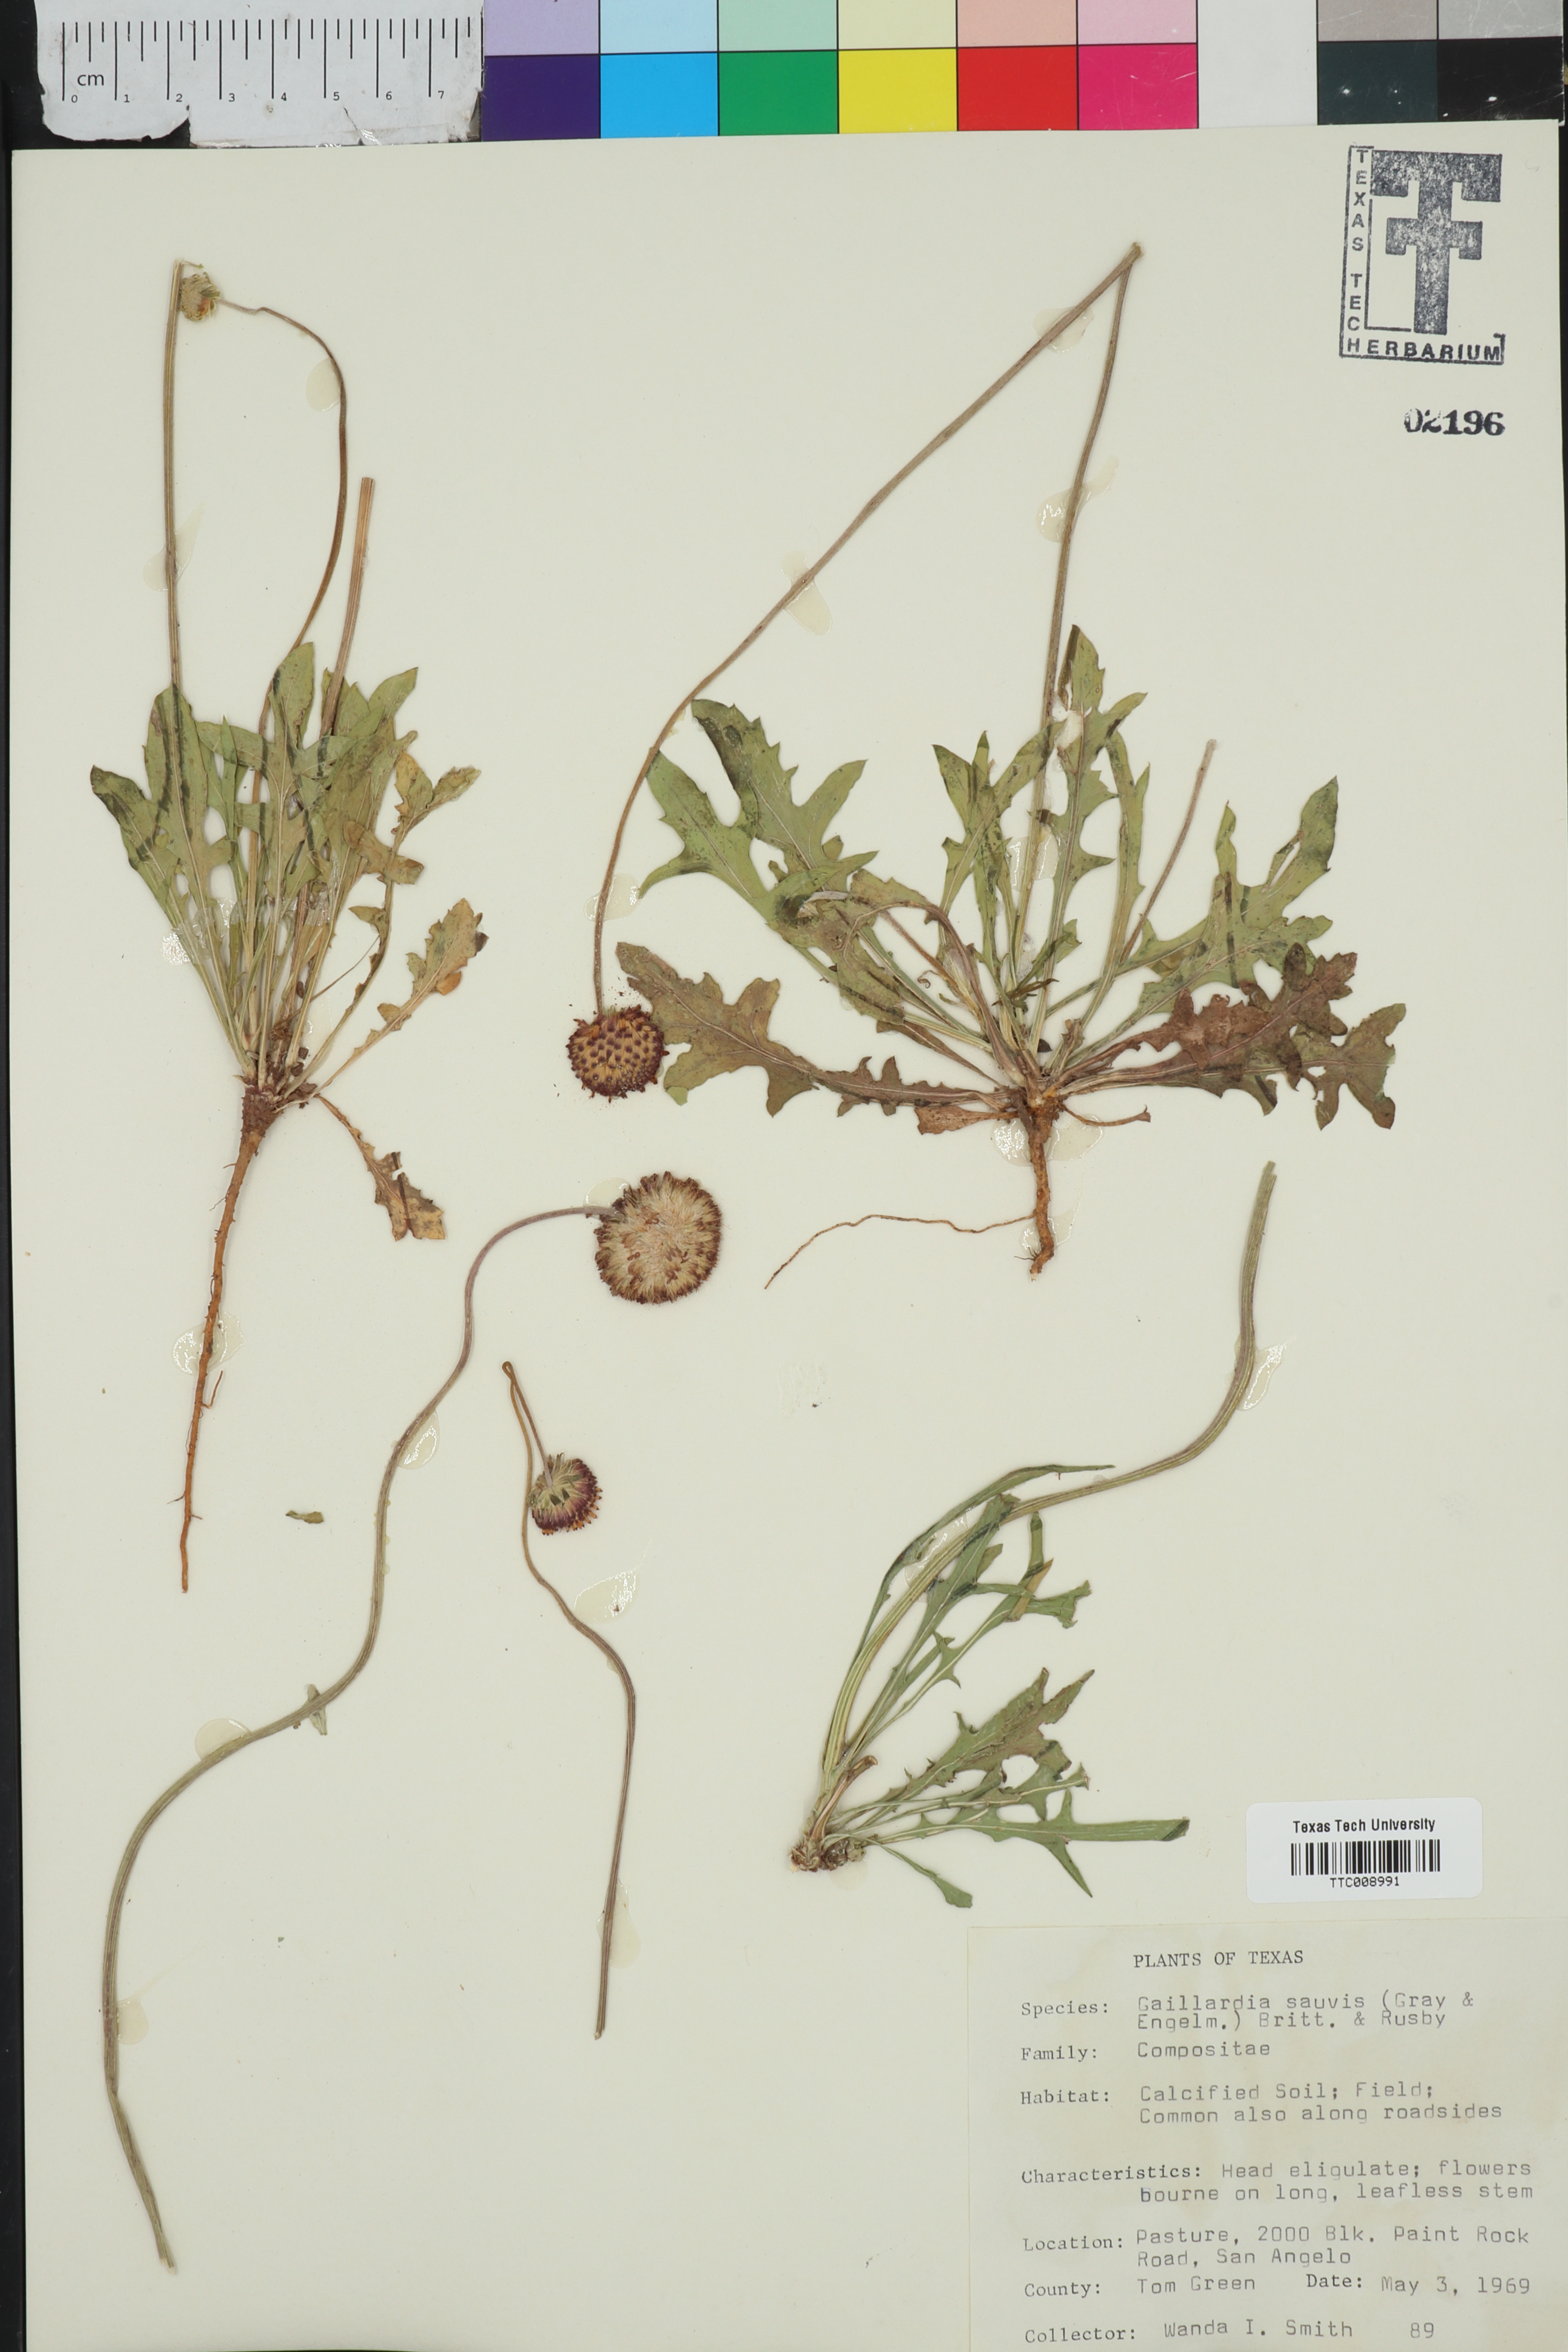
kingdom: Plantae
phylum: Tracheophyta
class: Magnoliopsida
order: Asterales
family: Asteraceae
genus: Gaillardia
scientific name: Gaillardia suavis
